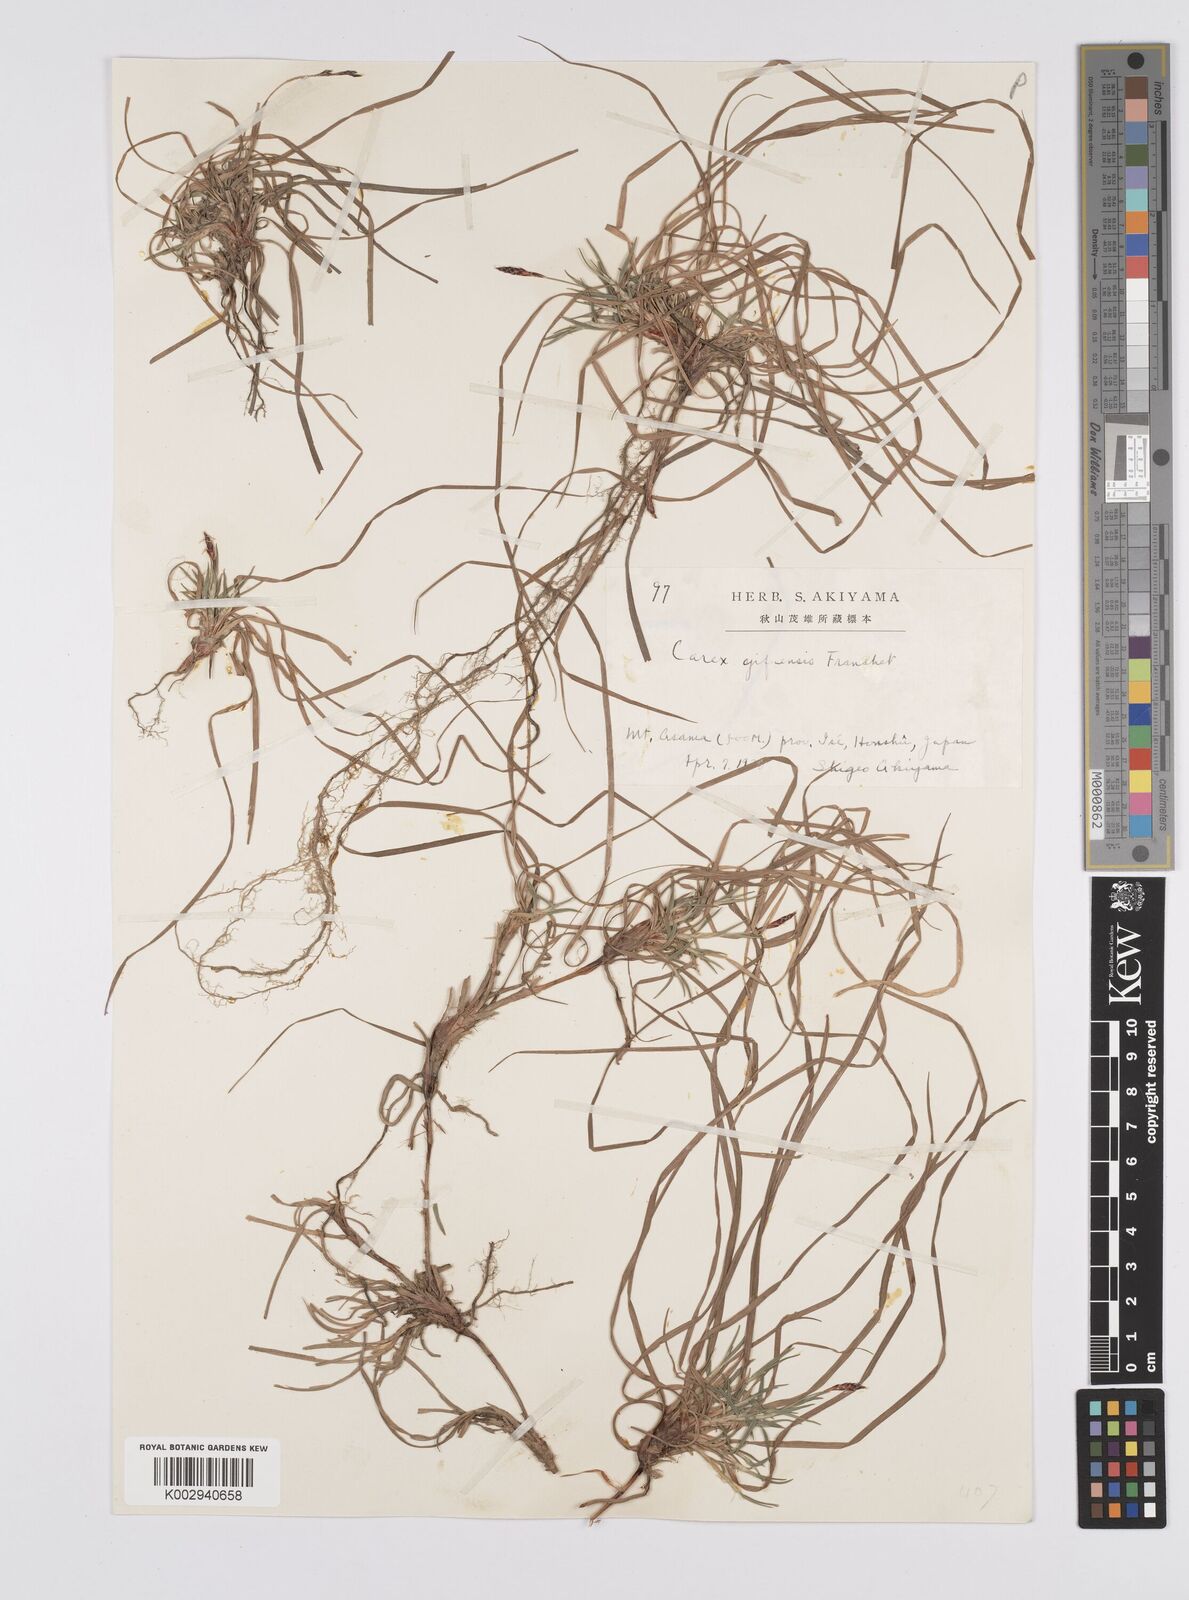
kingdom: Plantae
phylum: Tracheophyta
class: Liliopsida
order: Poales
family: Cyperaceae
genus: Carex
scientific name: Carex gifuensis
